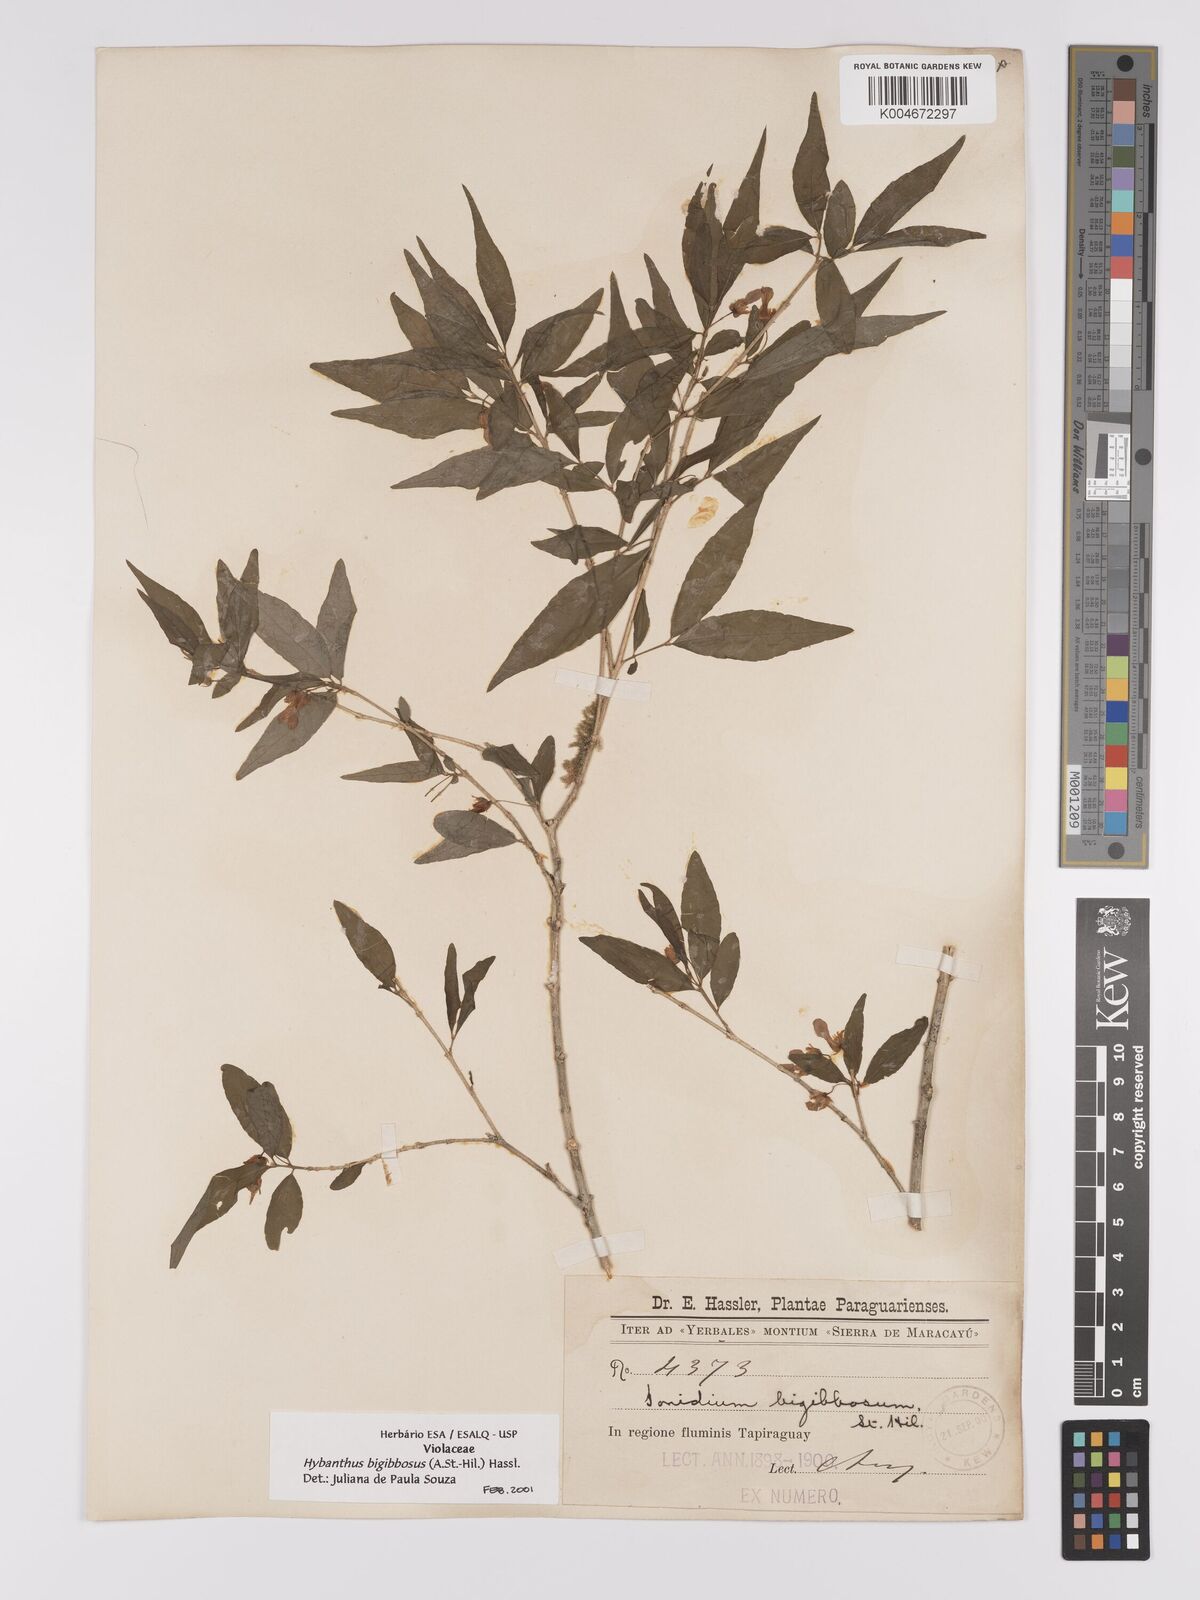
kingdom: Plantae
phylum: Tracheophyta
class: Magnoliopsida
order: Malpighiales
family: Violaceae
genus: Pombalia
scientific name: Pombalia bigibbosa
